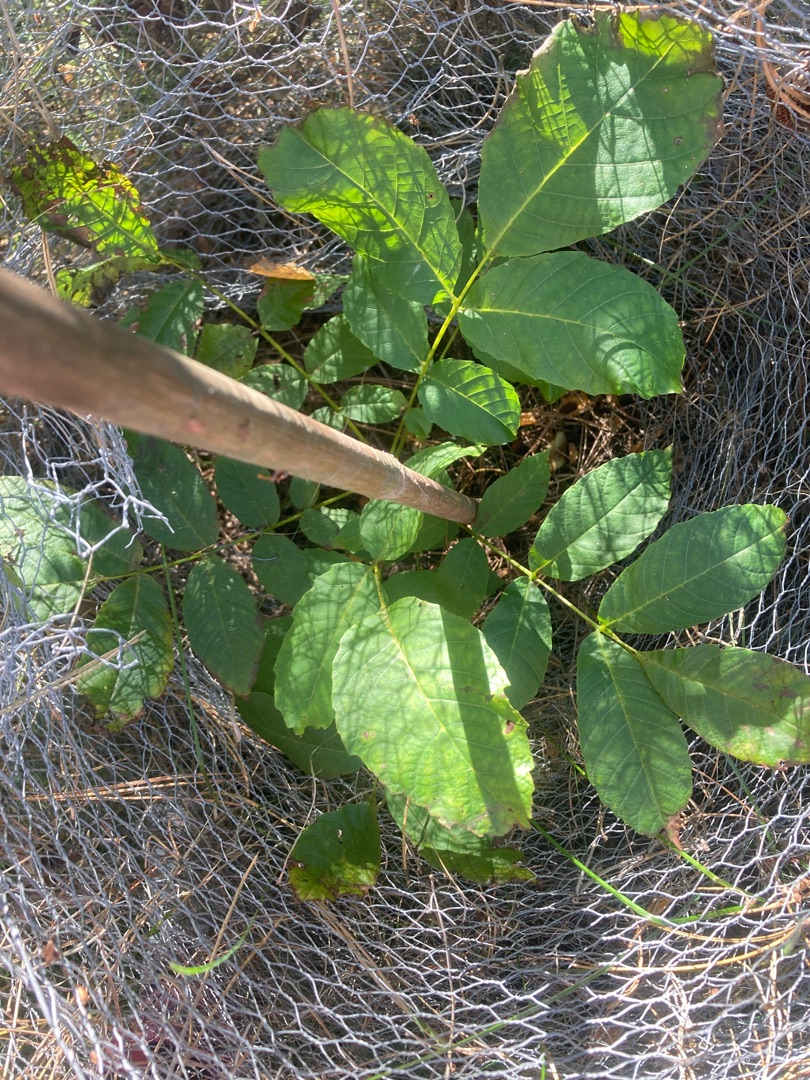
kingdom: Plantae
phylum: Tracheophyta
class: Magnoliopsida
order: Fagales
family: Juglandaceae
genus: Juglans
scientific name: Juglans regia
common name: Almindelig valnød
